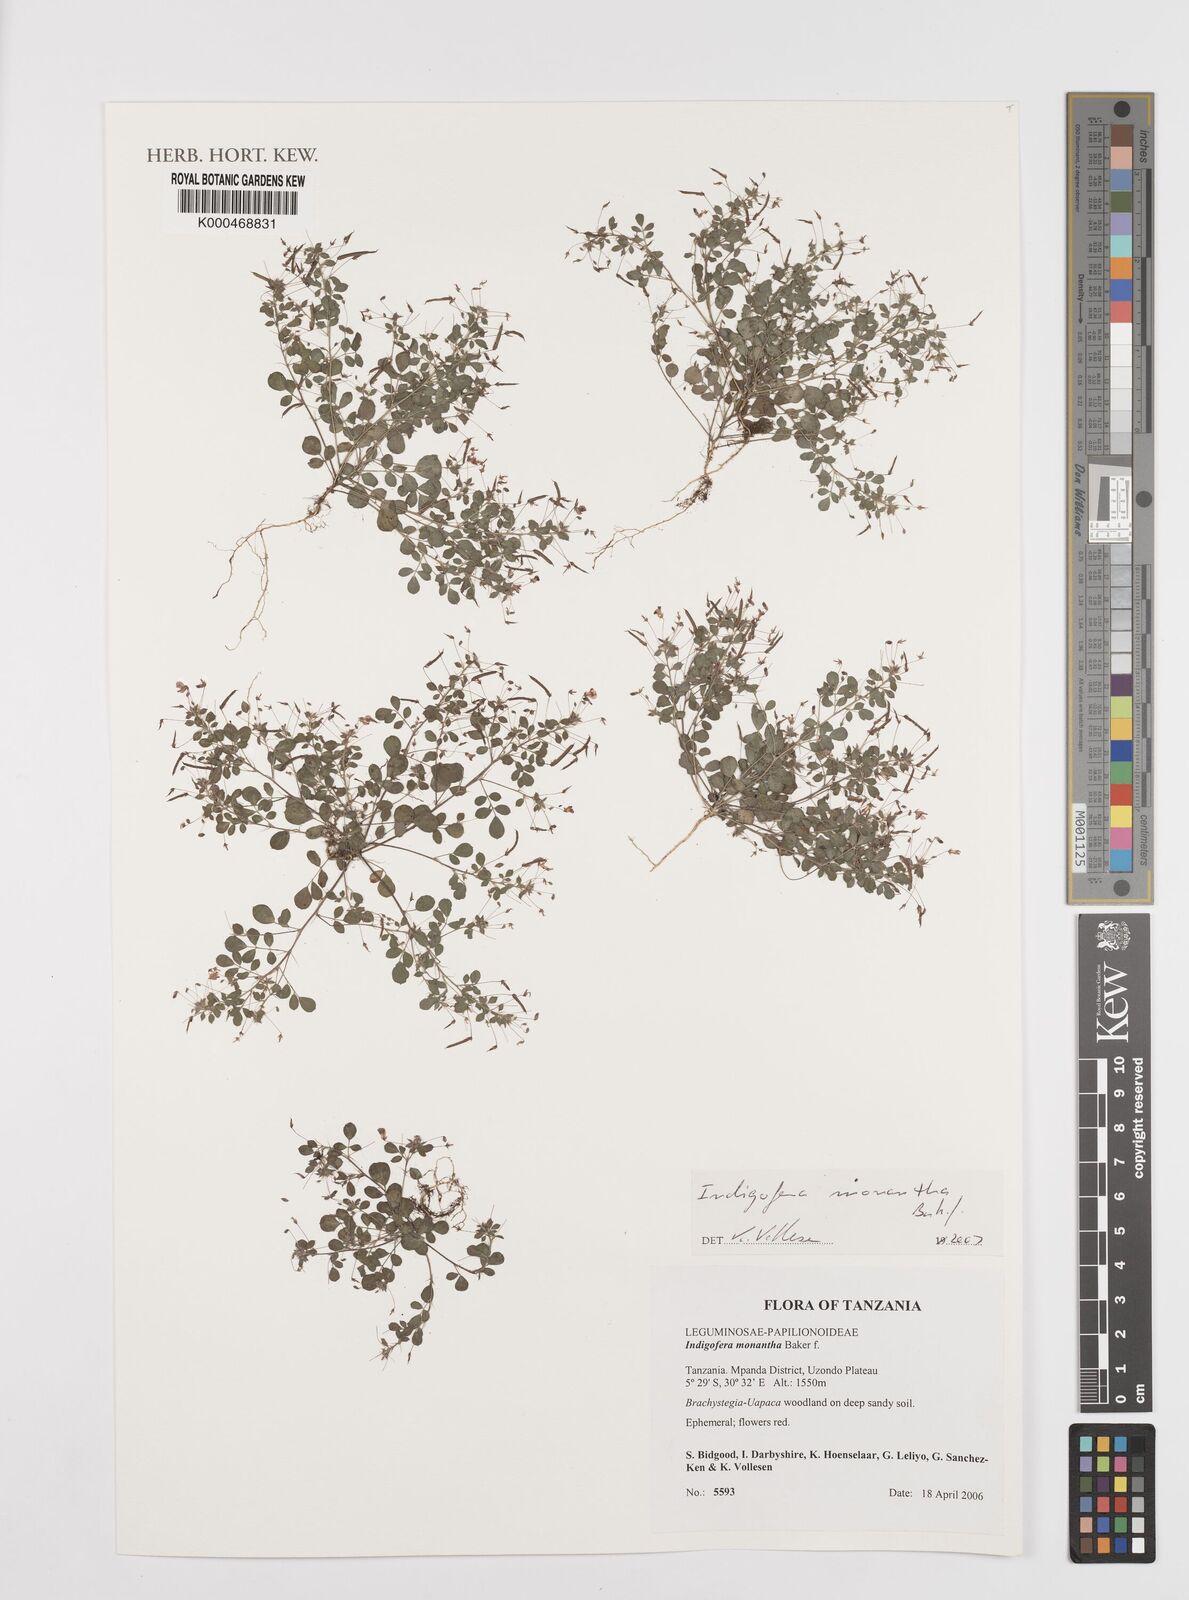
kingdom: Plantae
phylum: Tracheophyta
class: Magnoliopsida
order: Fabales
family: Fabaceae
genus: Indigofera
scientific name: Indigofera monantha
